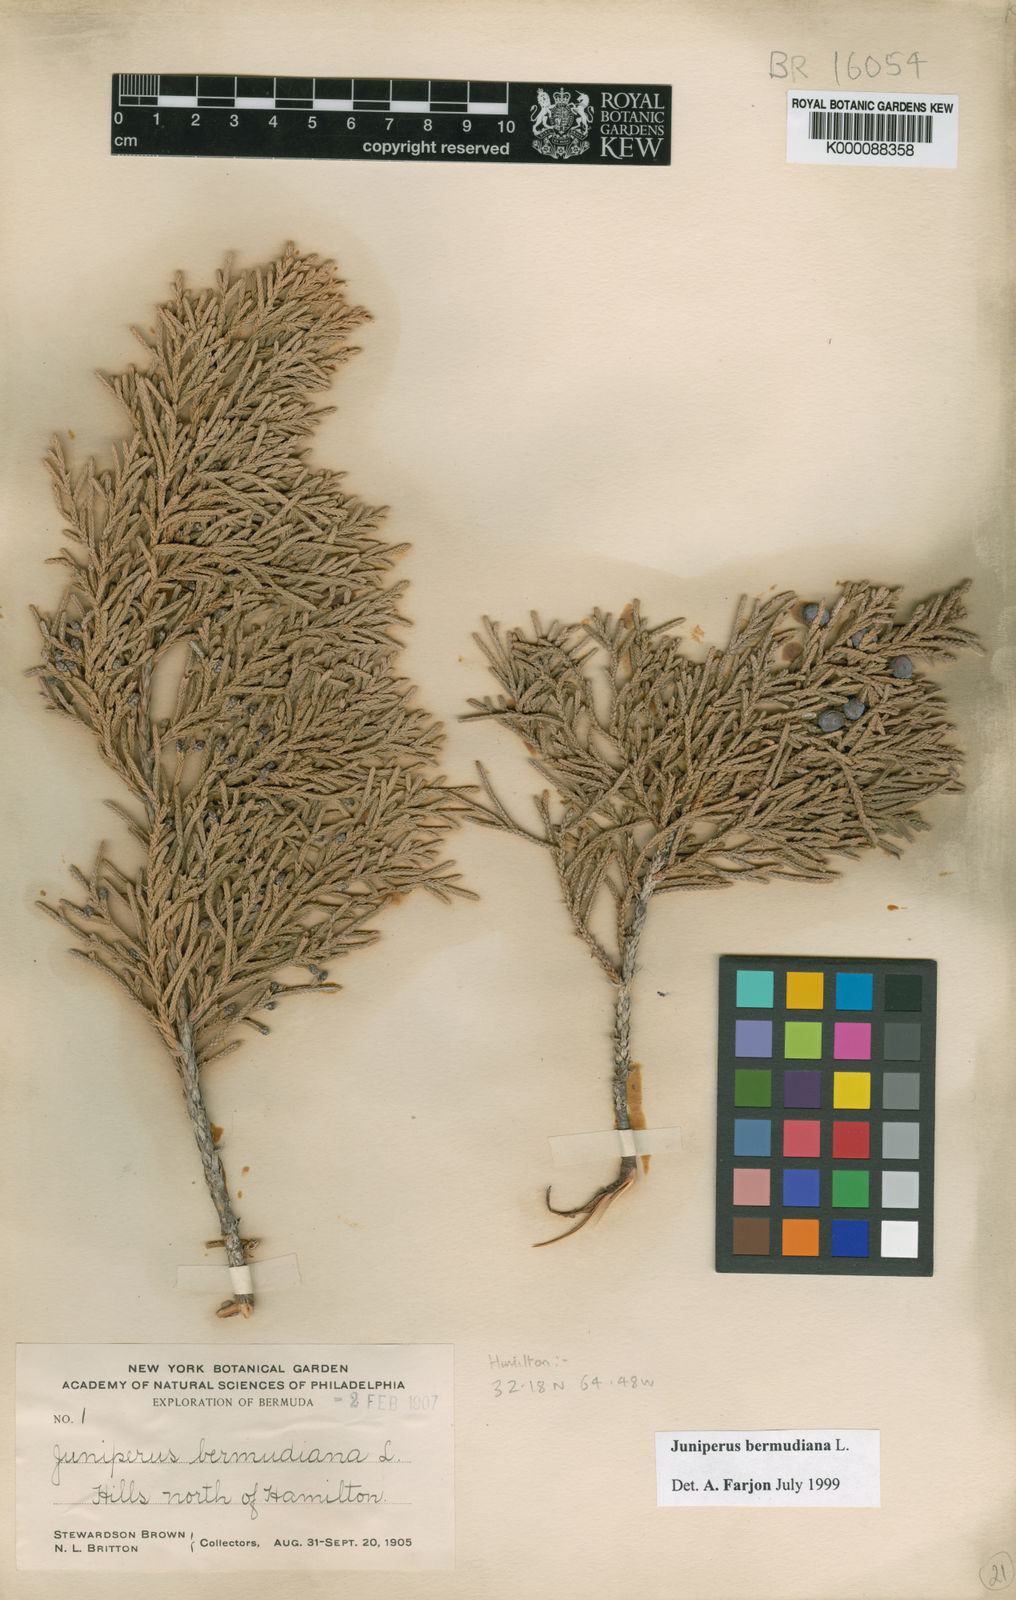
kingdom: Plantae
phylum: Tracheophyta
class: Pinopsida
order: Pinales
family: Cupressaceae
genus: Juniperus
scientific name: Juniperus bermudiana
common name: Bermuda juniper
